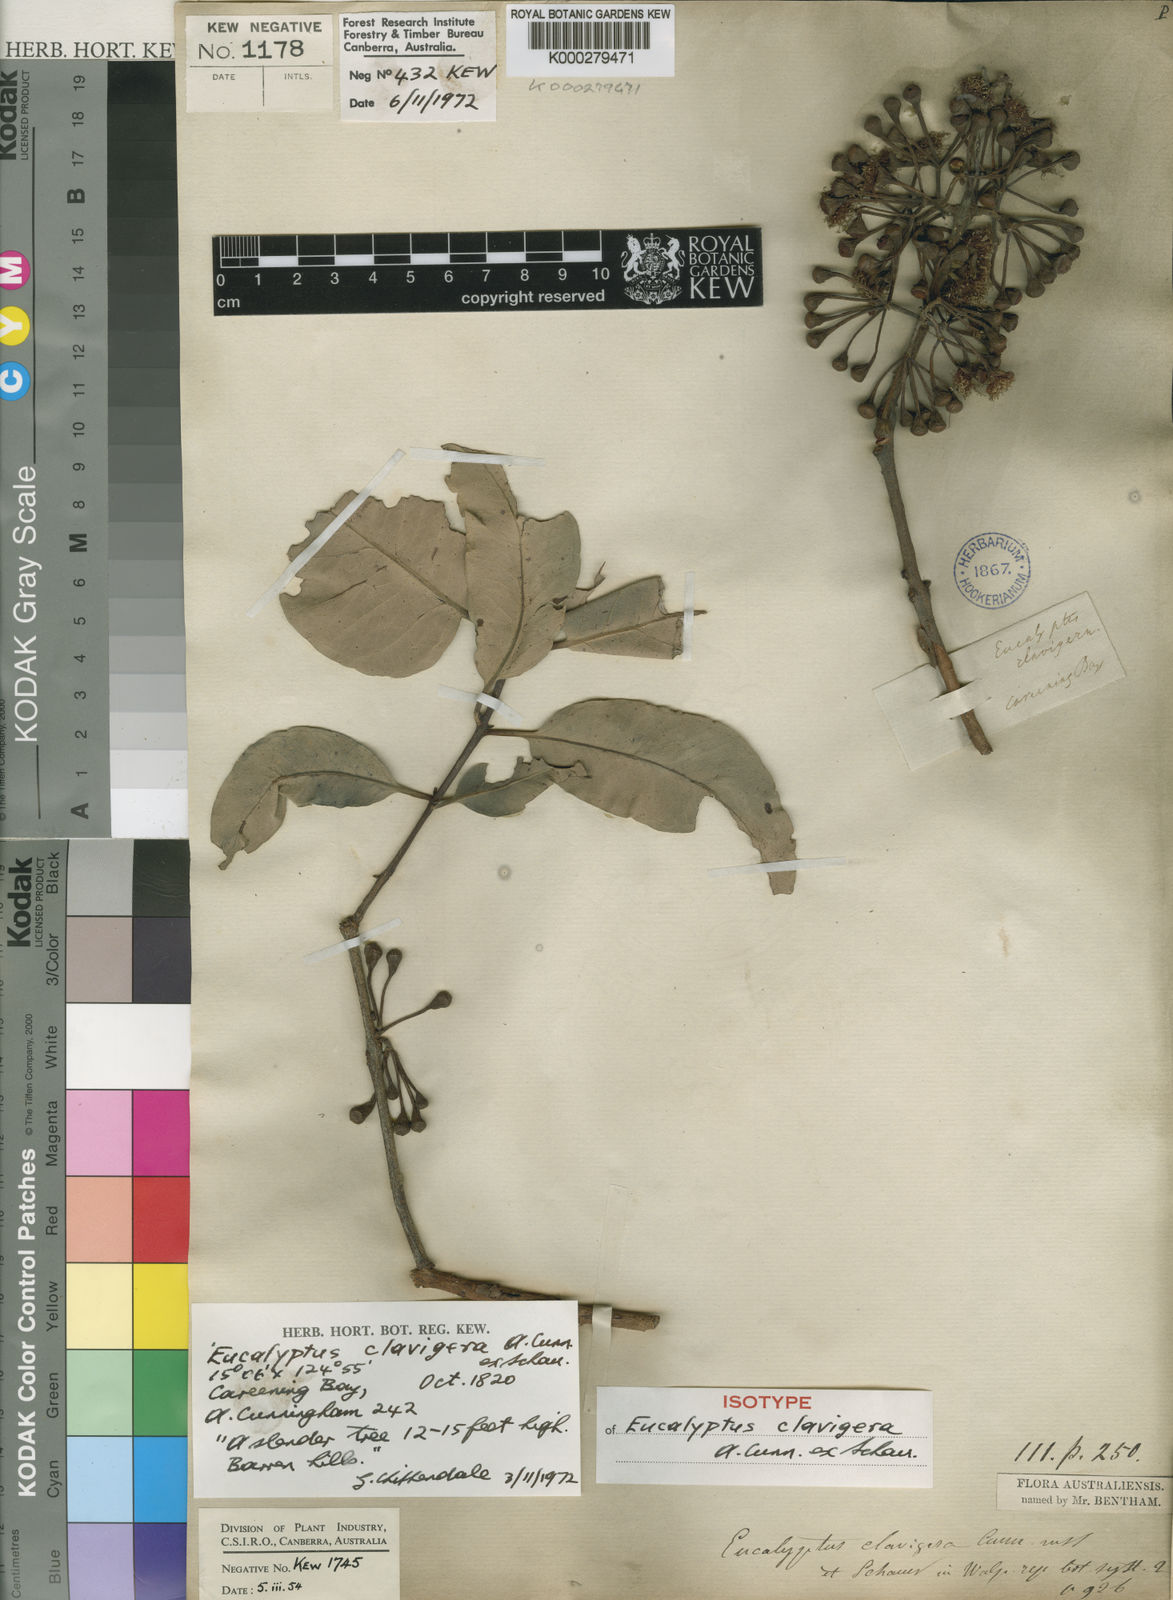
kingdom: Plantae
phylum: Tracheophyta
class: Magnoliopsida
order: Myrtales
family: Myrtaceae
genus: Corymbia
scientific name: Corymbia clavigera
